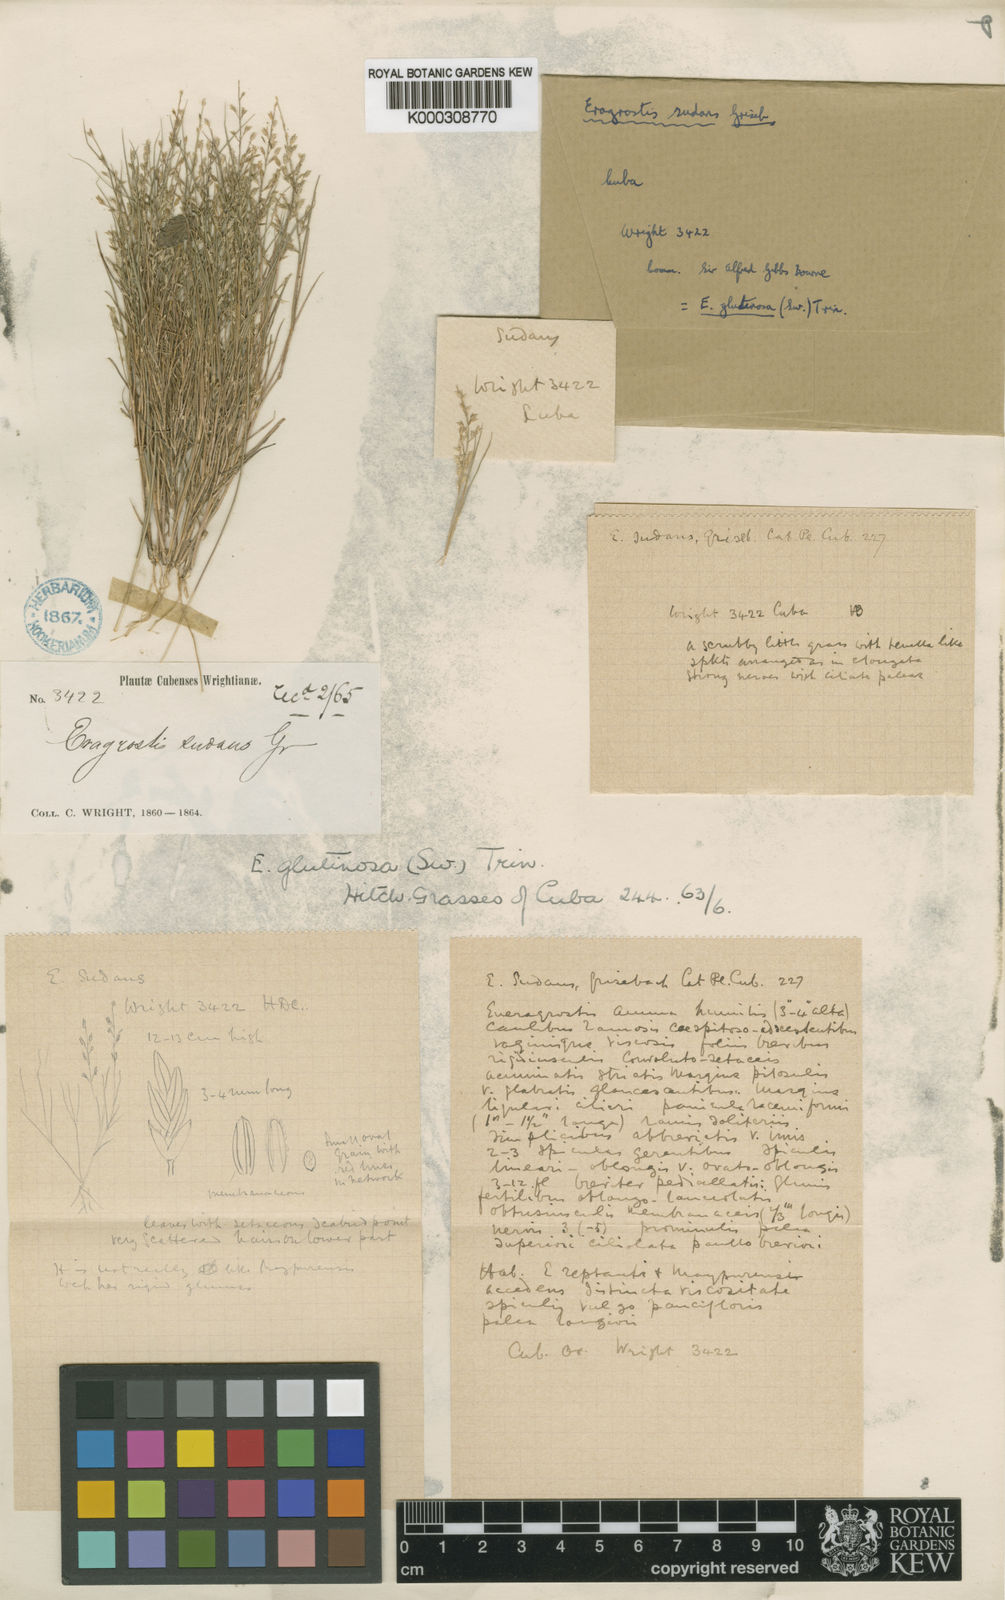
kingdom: Plantae
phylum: Tracheophyta
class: Liliopsida
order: Poales
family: Poaceae
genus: Eragrostis
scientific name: Eragrostis glutinosa
